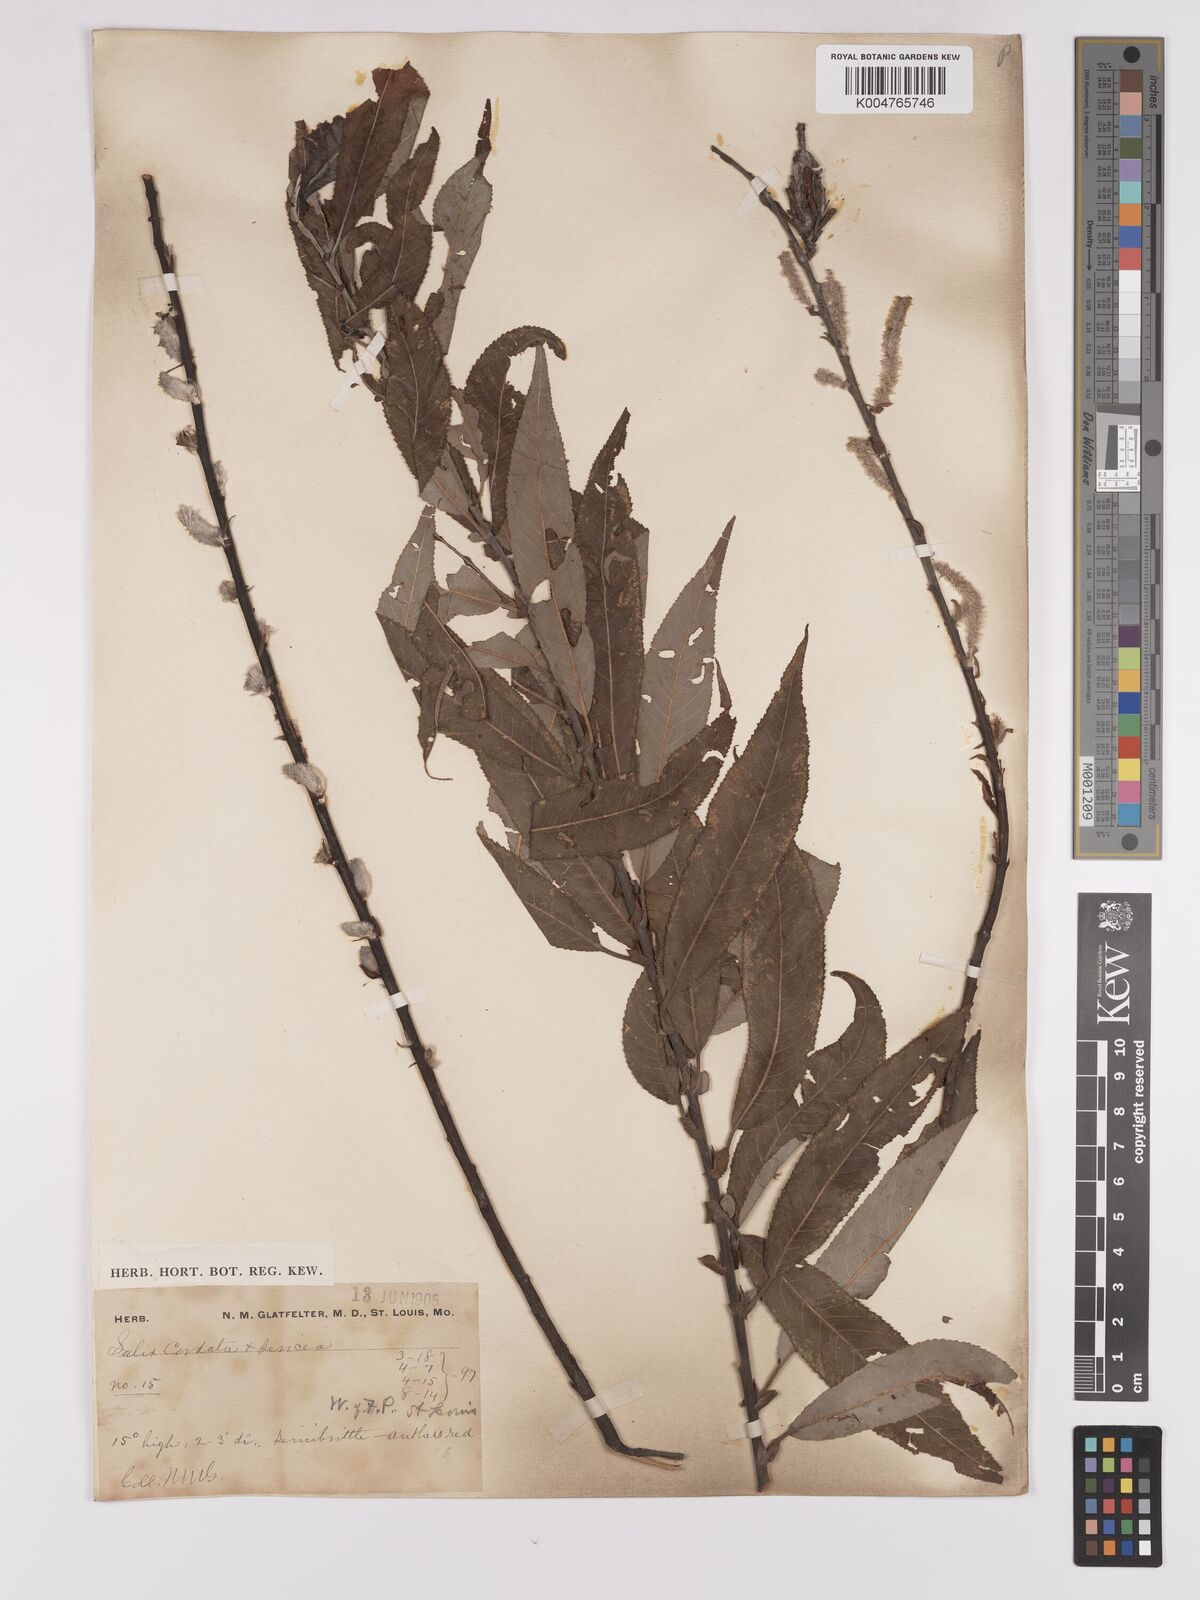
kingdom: Plantae
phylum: Tracheophyta
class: Magnoliopsida
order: Malpighiales
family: Salicaceae
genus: Salix
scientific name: Salix cordata
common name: Heart-leaf willow
